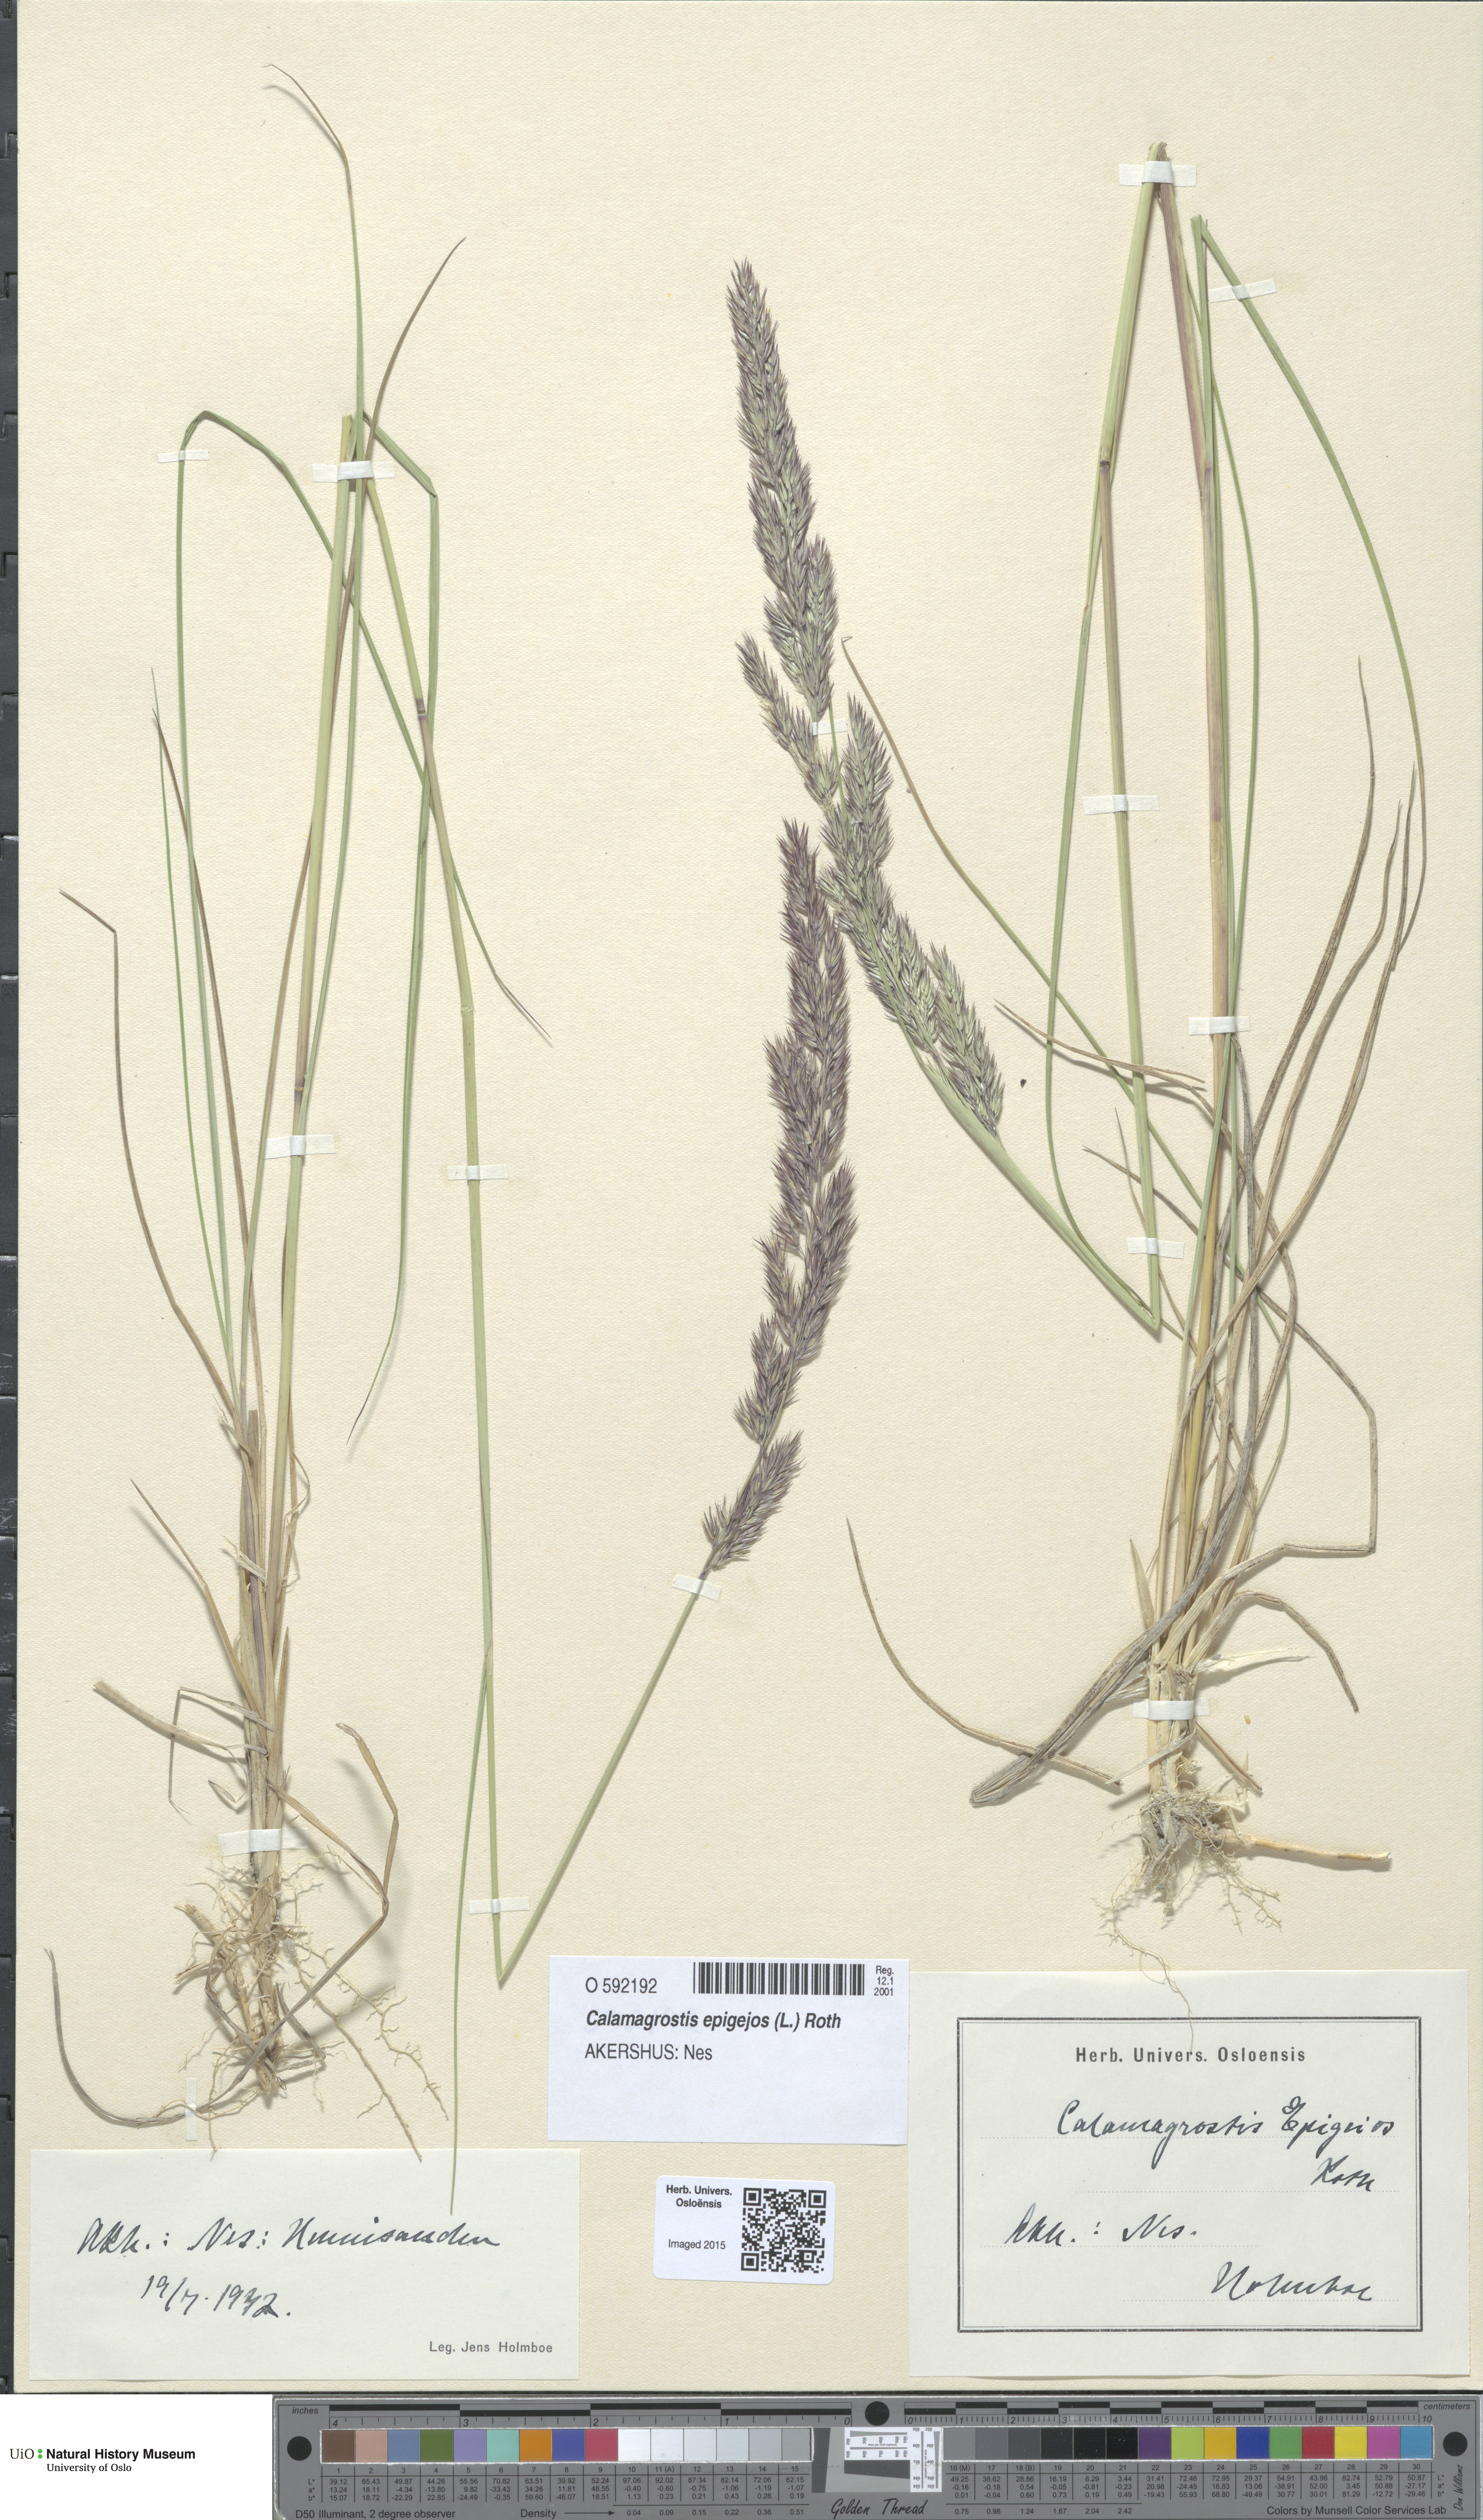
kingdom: Plantae
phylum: Tracheophyta
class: Liliopsida
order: Poales
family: Poaceae
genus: Calamagrostis
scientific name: Calamagrostis epigejos
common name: Wood small-reed
